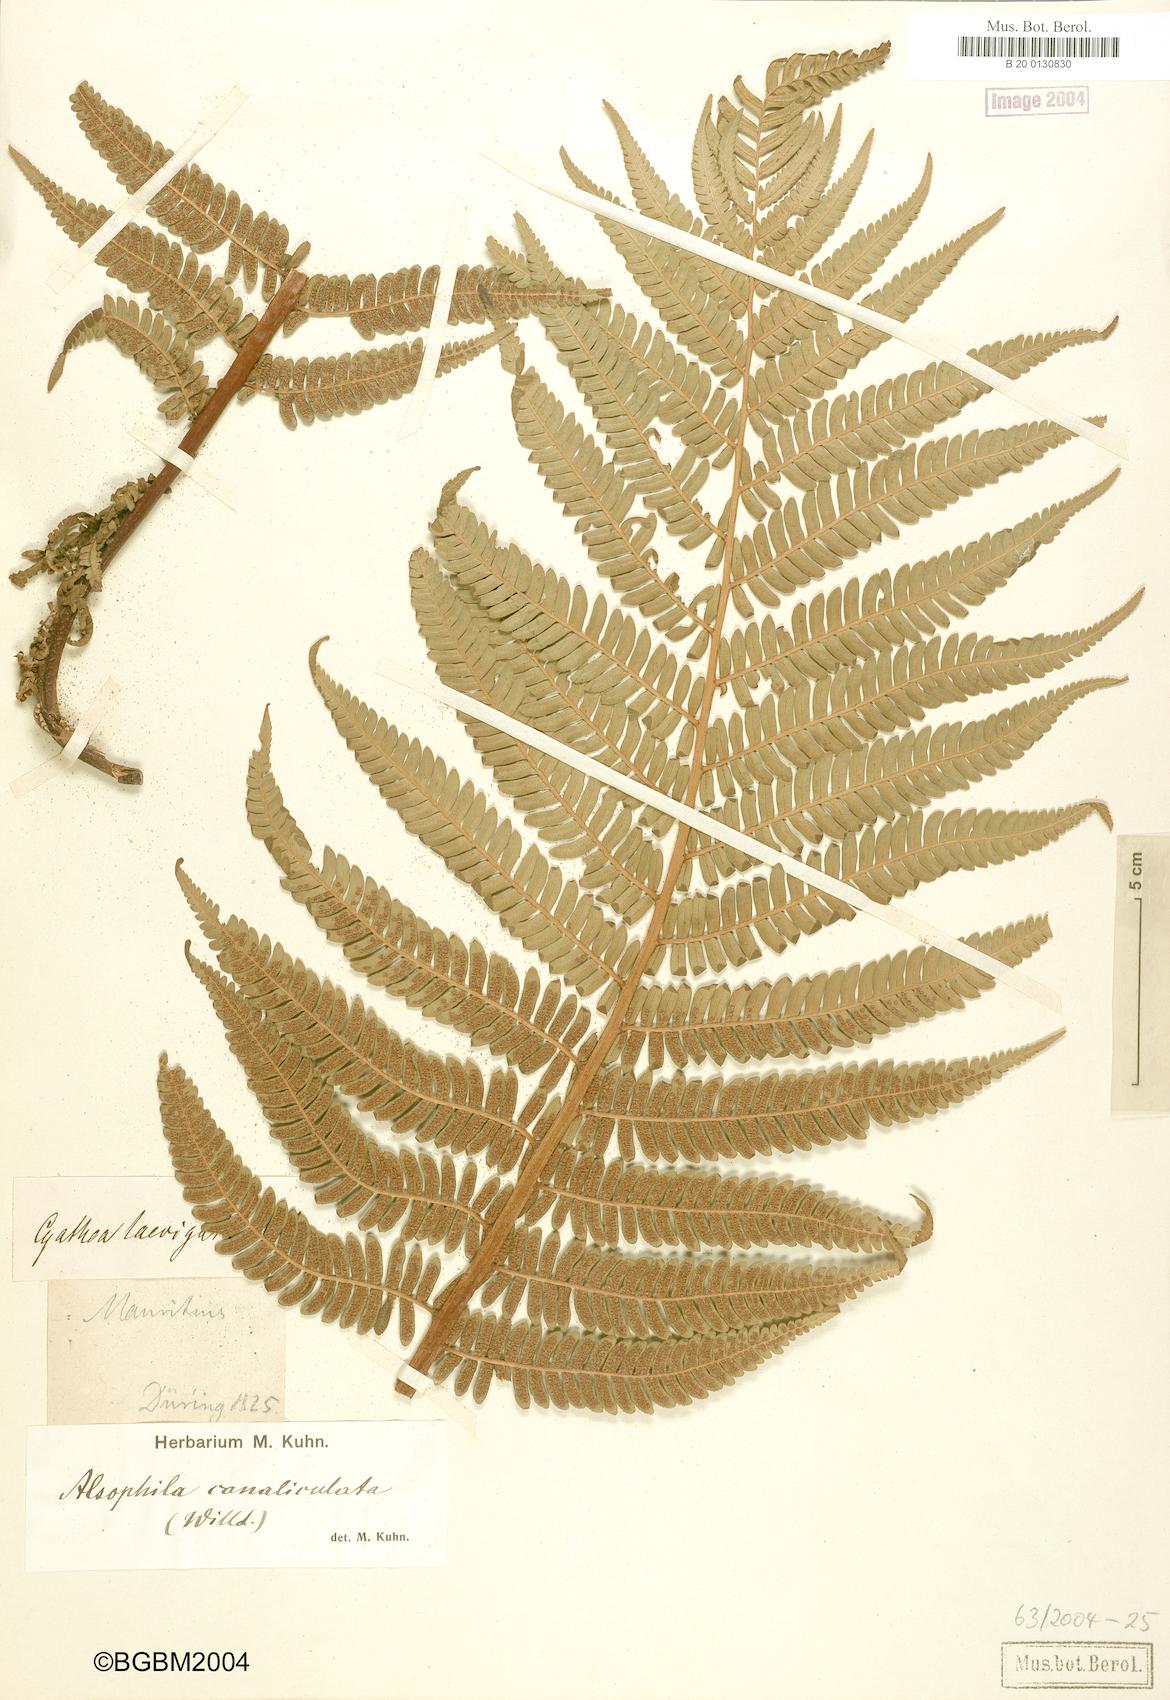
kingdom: Plantae
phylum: Tracheophyta
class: Polypodiopsida
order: Cyatheales
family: Cyatheaceae
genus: Alsophila
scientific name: Alsophila borbonica
